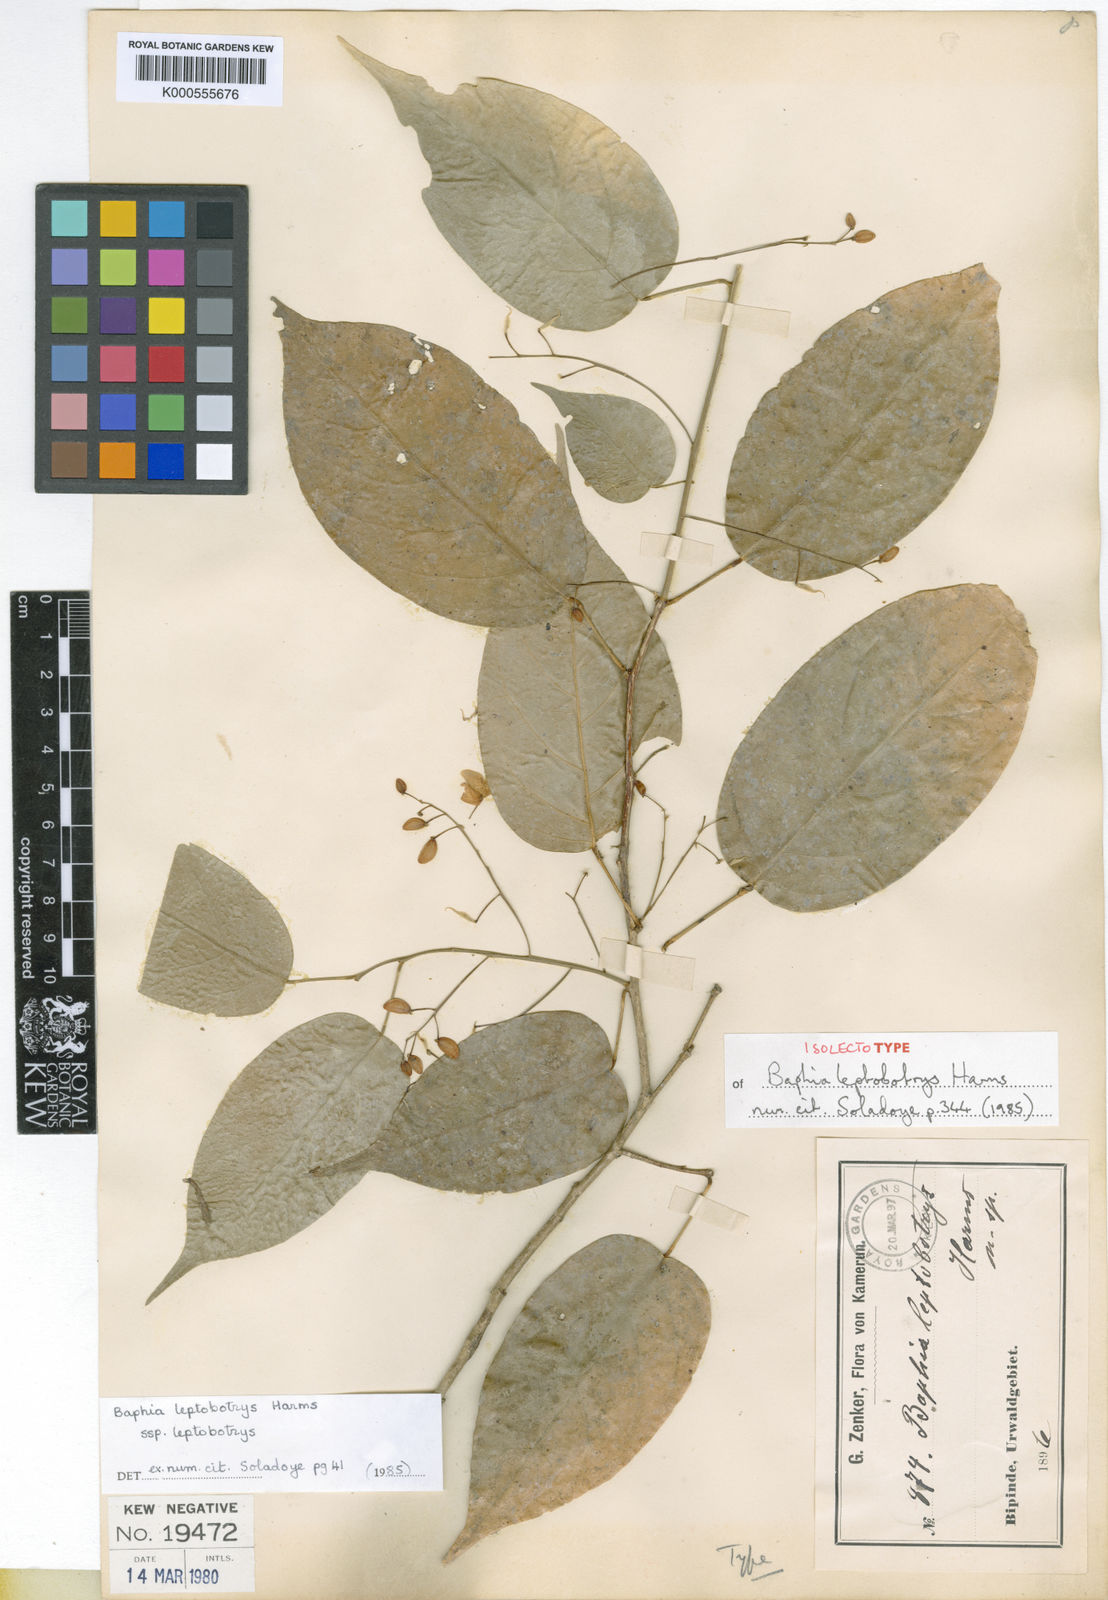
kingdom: Plantae
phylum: Tracheophyta
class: Magnoliopsida
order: Fabales
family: Fabaceae
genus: Baphia
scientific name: Baphia leptobotrys
